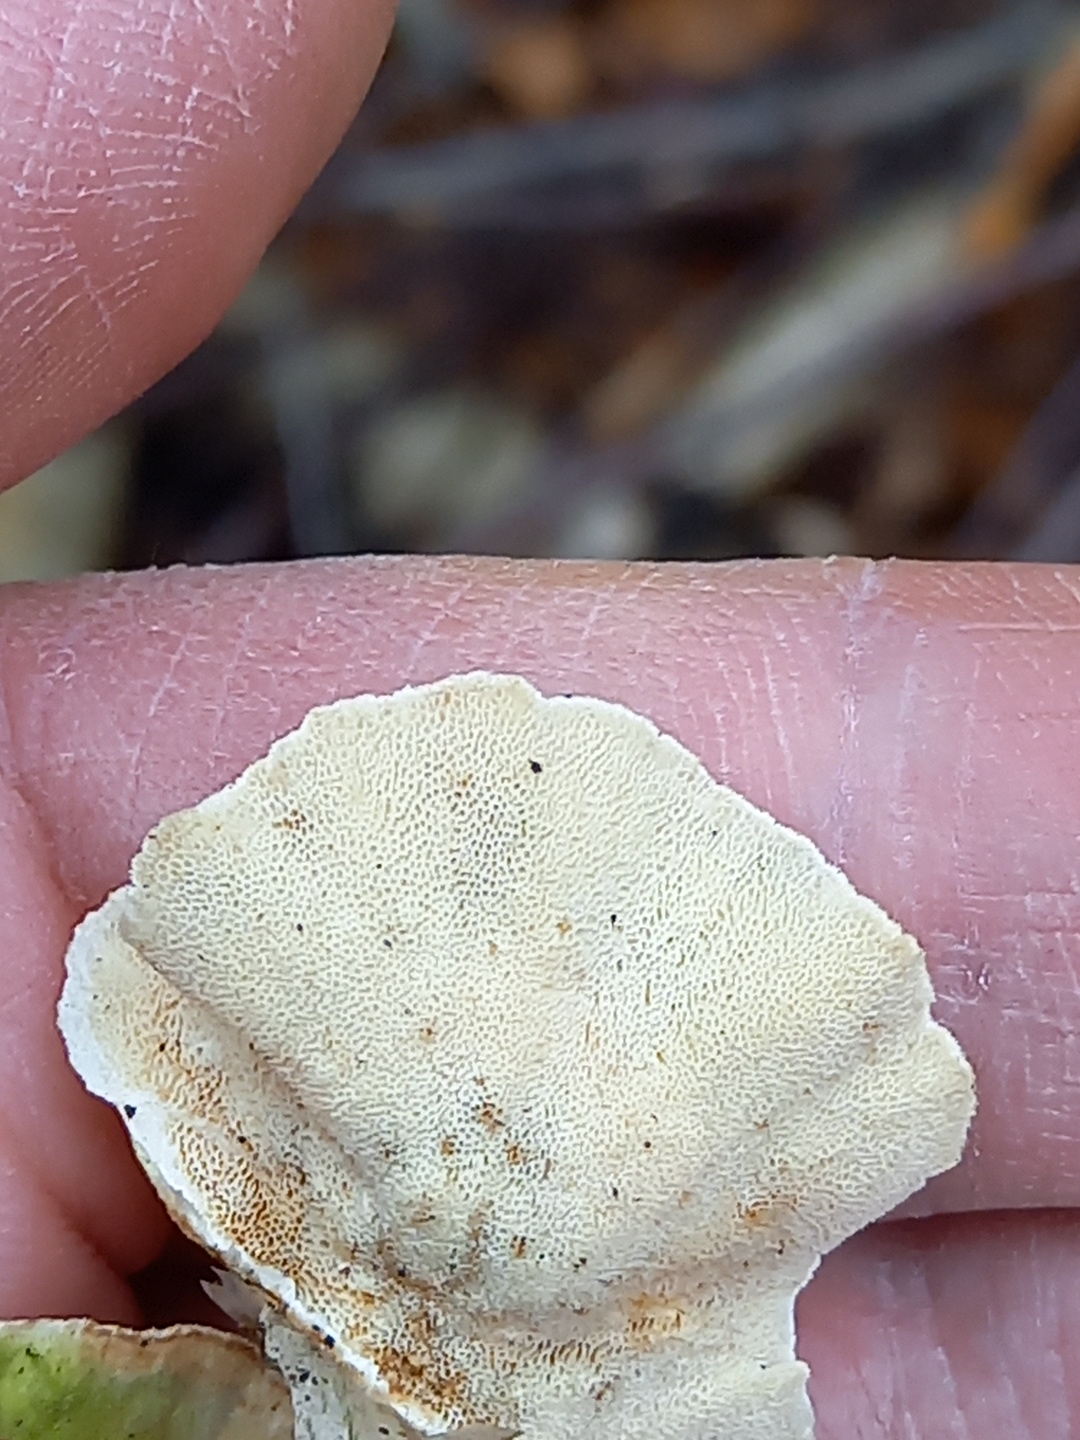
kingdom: Fungi
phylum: Basidiomycota
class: Agaricomycetes
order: Polyporales
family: Polyporaceae
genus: Trametes
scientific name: Trametes
